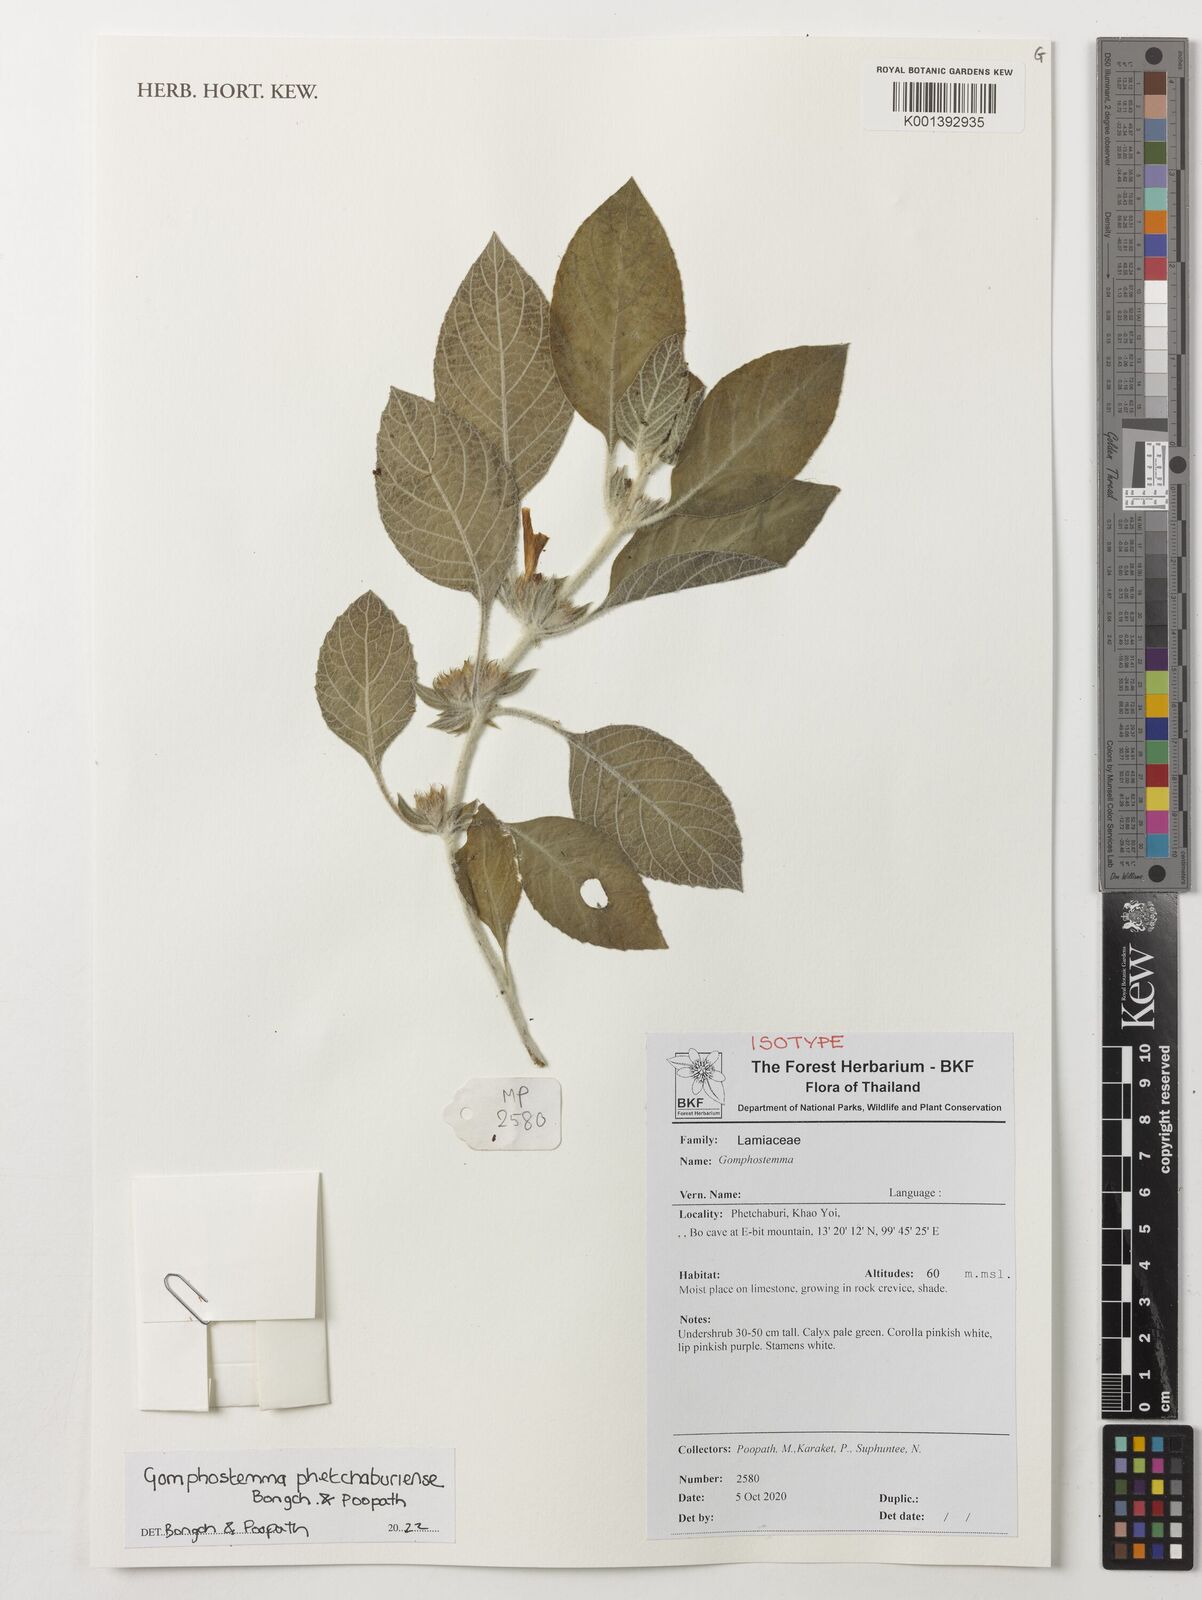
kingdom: Plantae
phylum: Tracheophyta
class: Magnoliopsida
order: Lamiales
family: Lamiaceae
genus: Gomphostemma
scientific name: Gomphostemma
